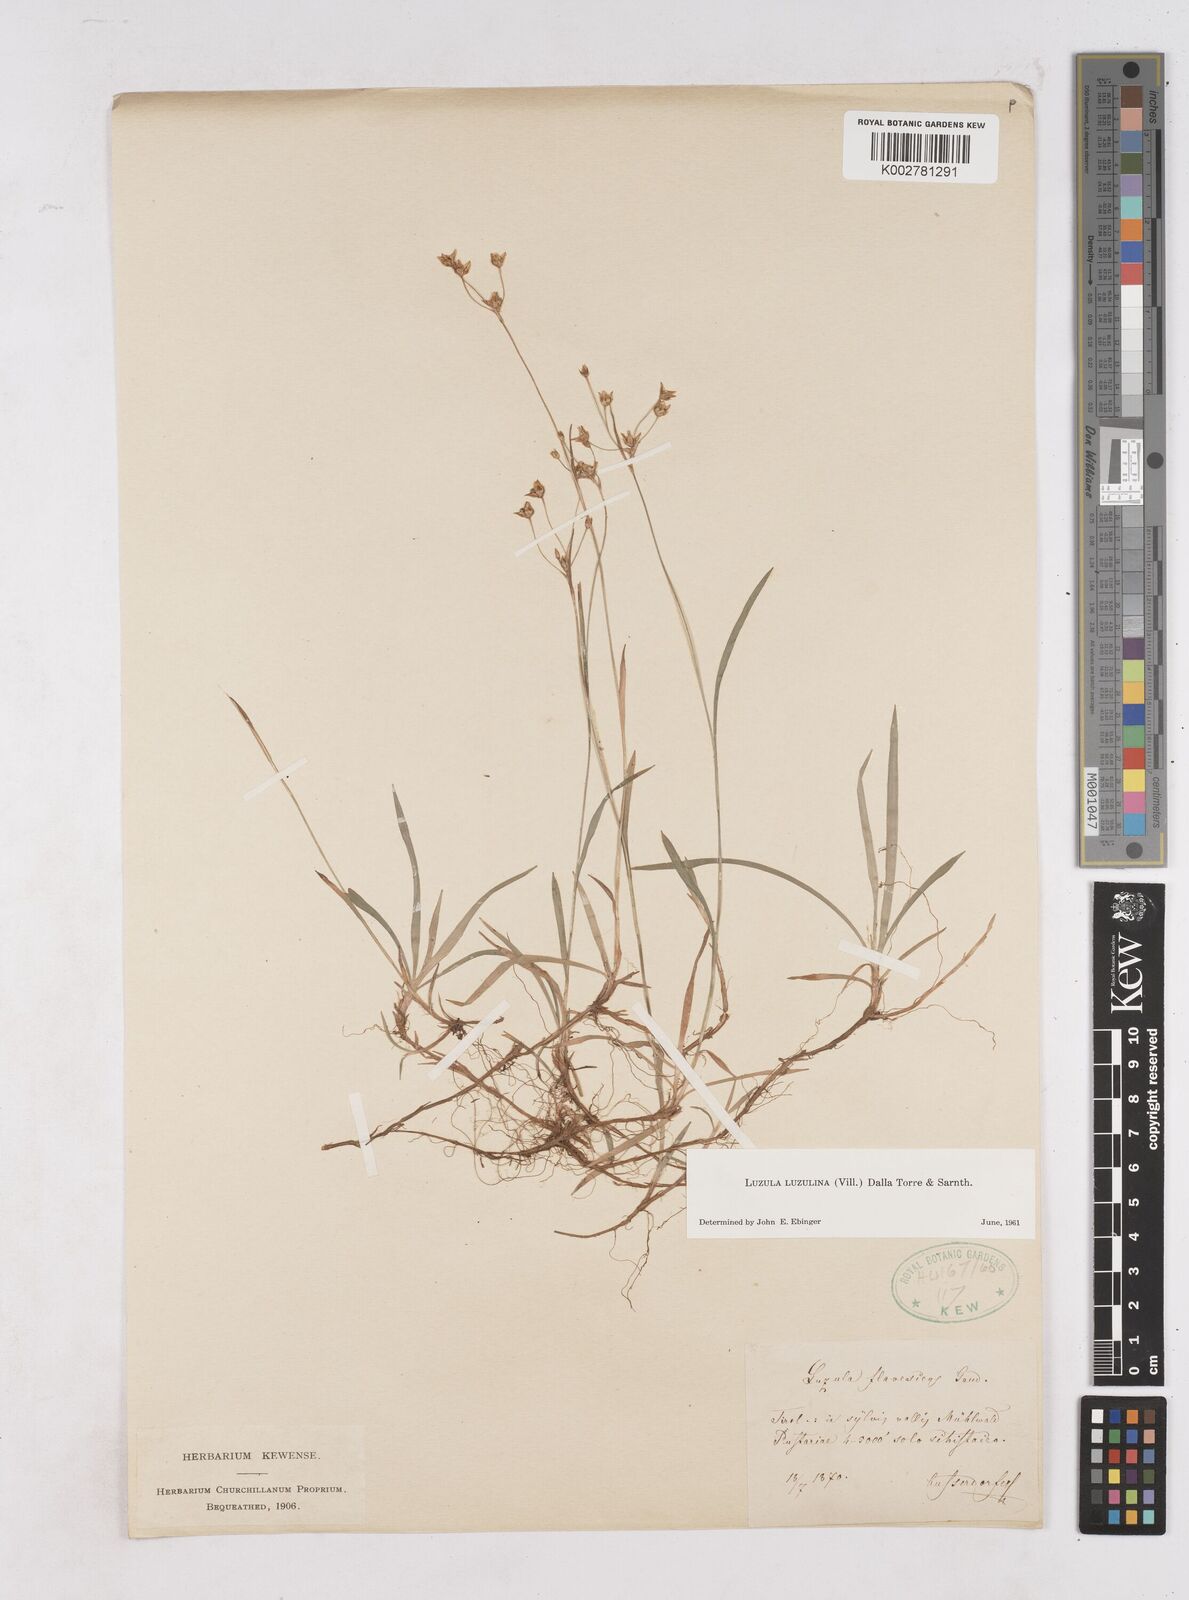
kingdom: Plantae
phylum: Tracheophyta
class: Liliopsida
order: Poales
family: Juncaceae
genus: Luzula
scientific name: Luzula luzulina
